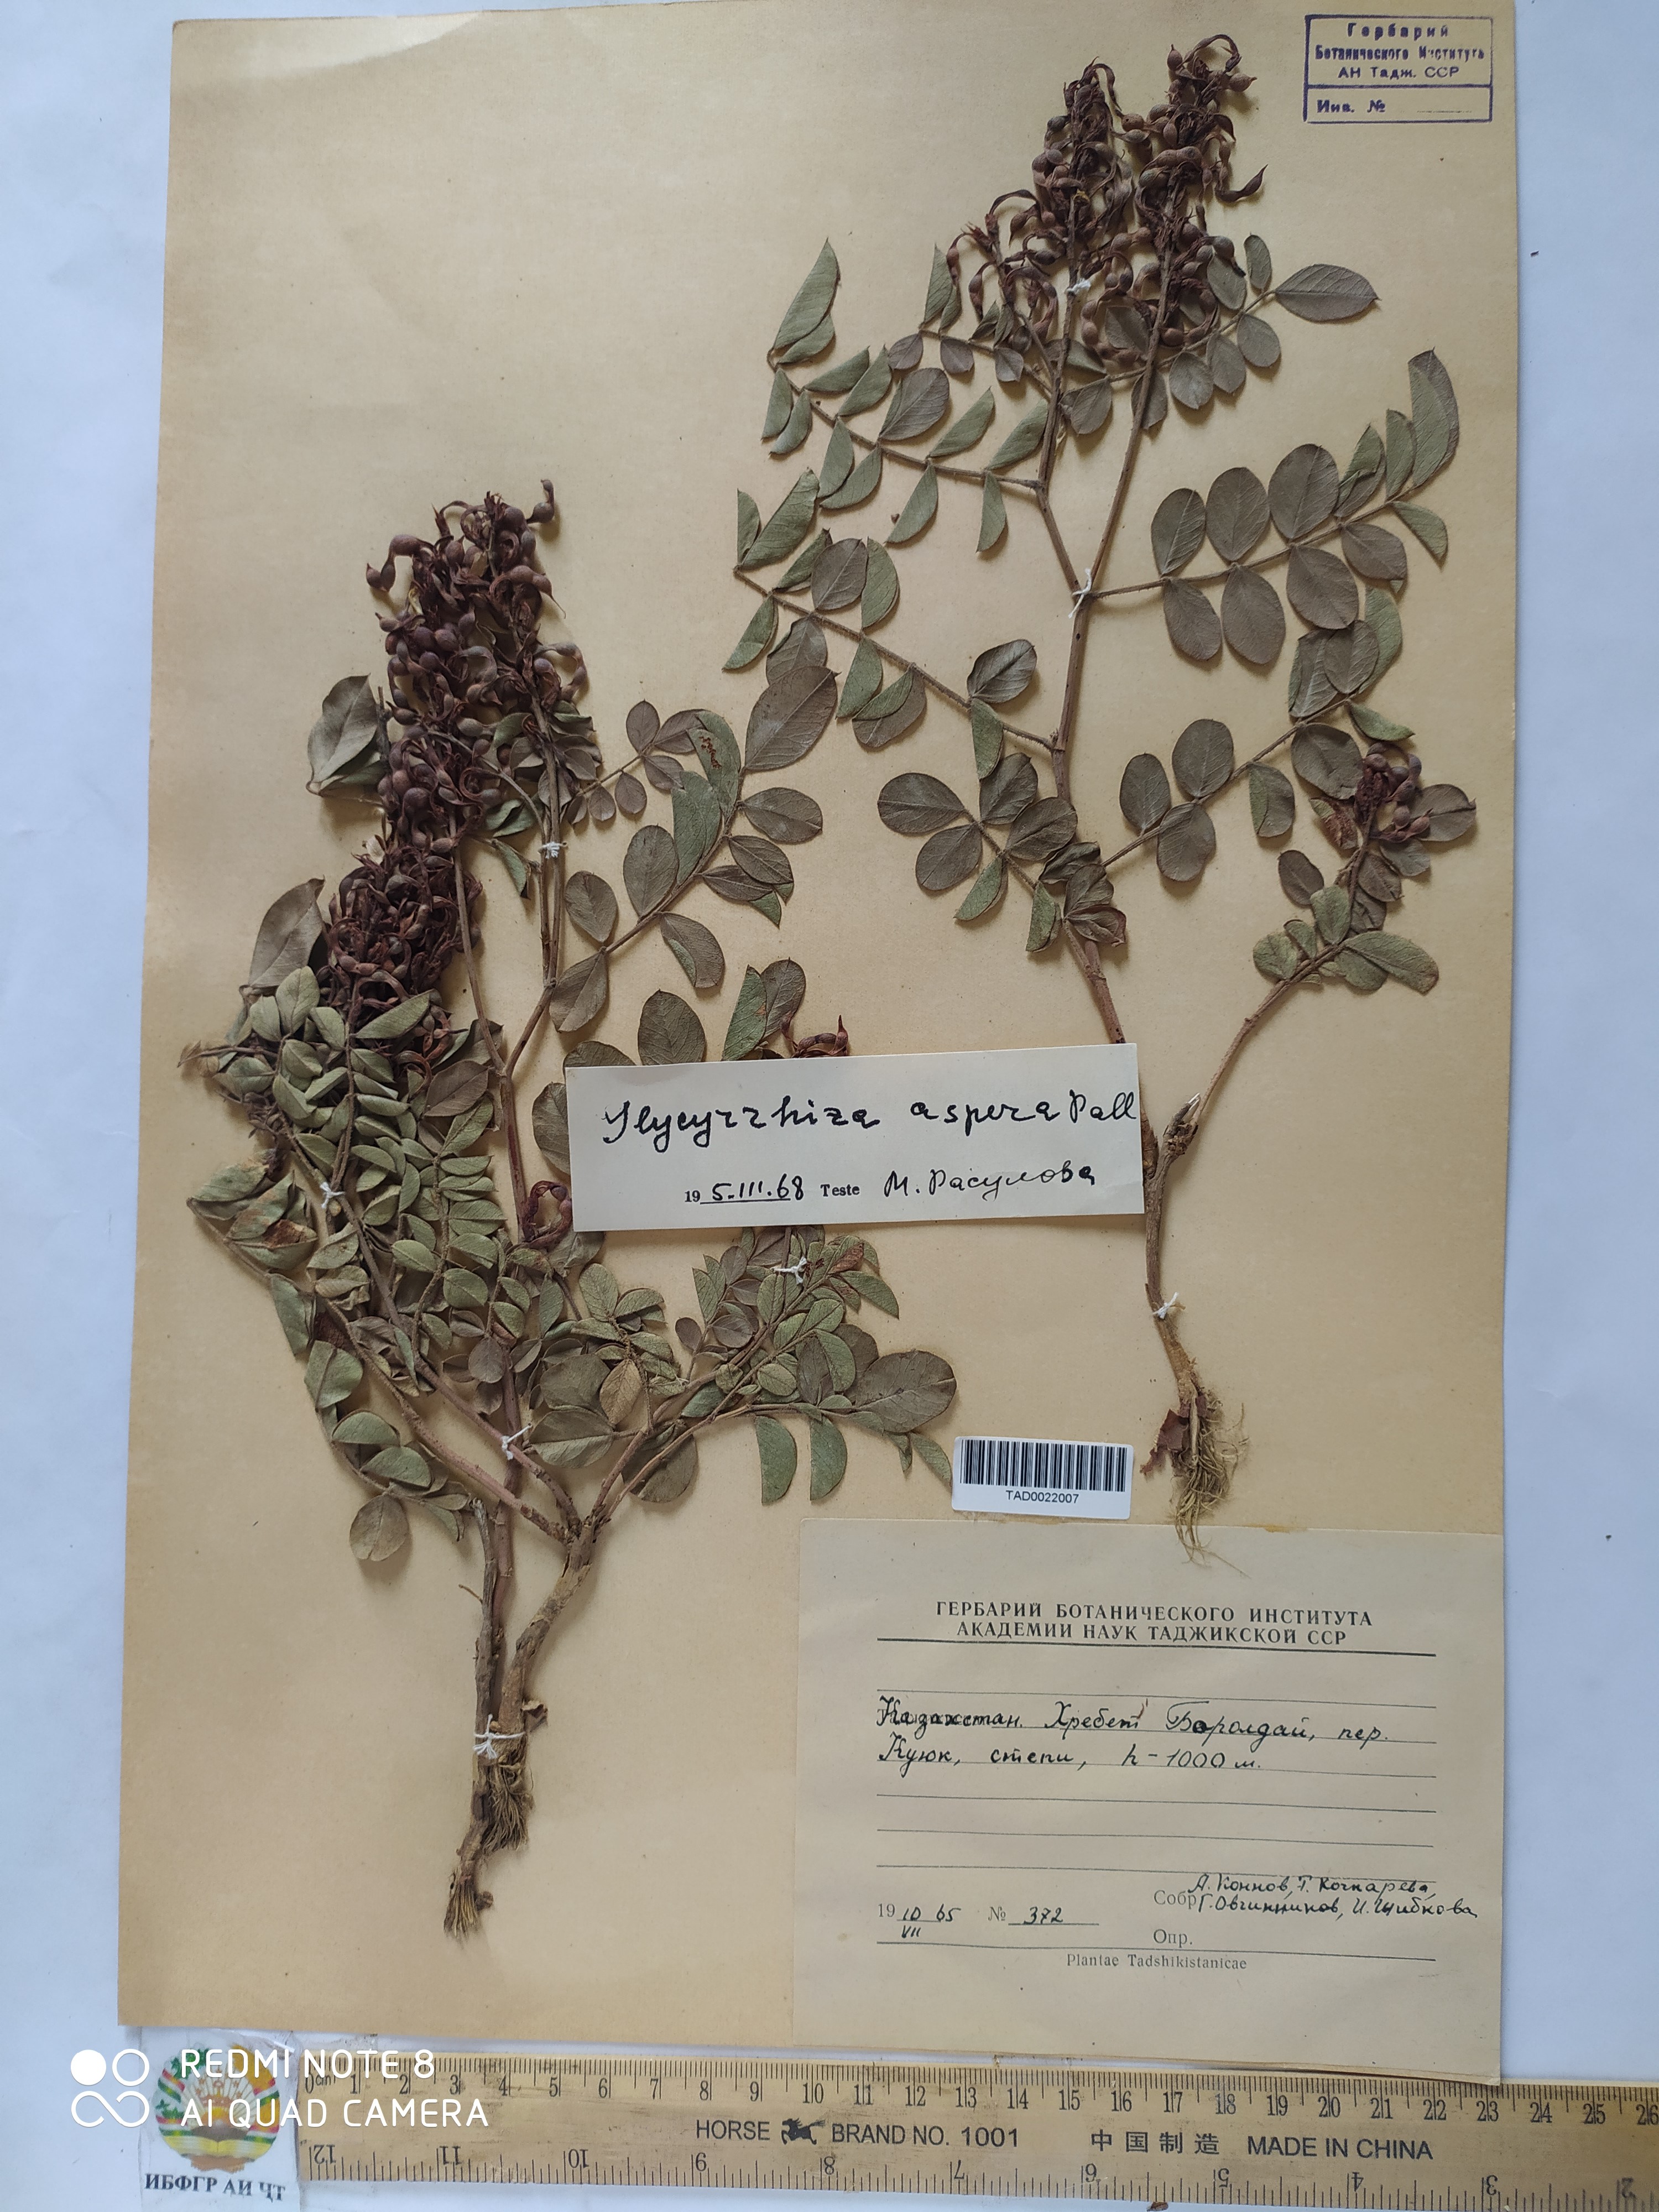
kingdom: Plantae
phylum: Tracheophyta
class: Magnoliopsida
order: Fabales
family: Fabaceae
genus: Glycyrrhiza
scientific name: Glycyrrhiza aspera
